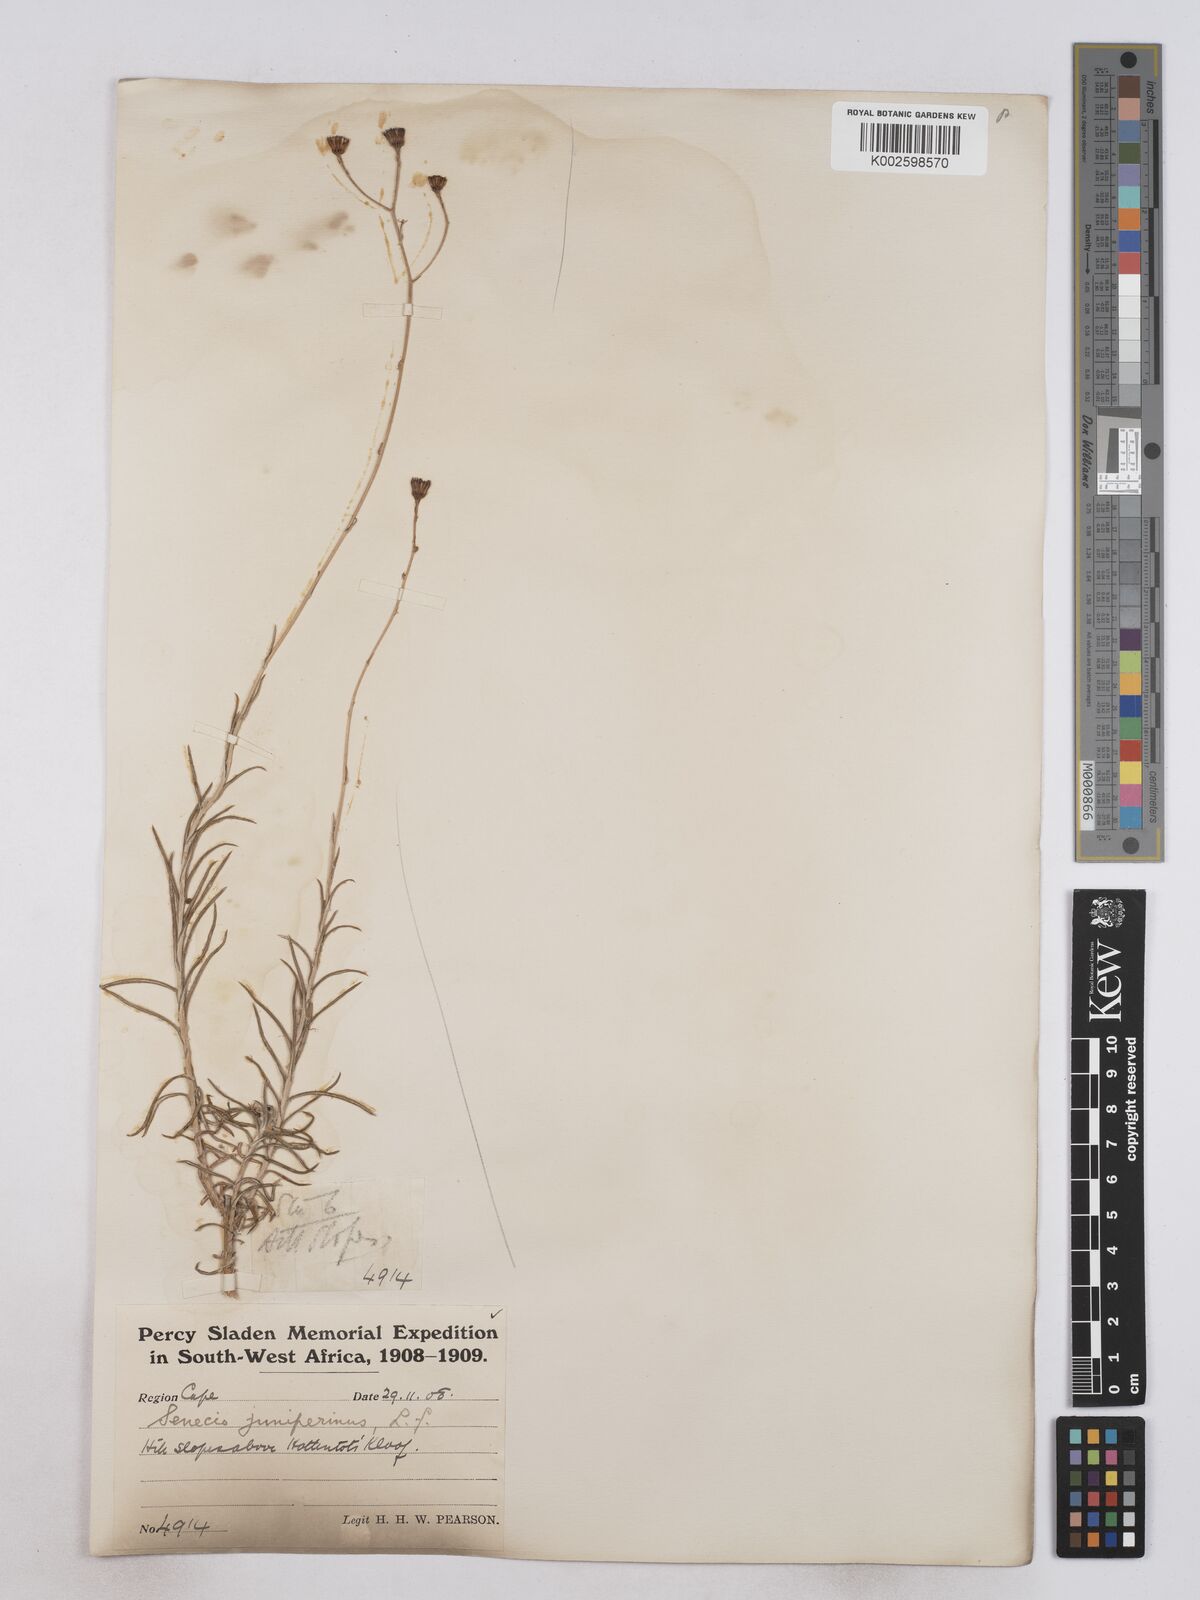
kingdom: Plantae
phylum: Tracheophyta
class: Magnoliopsida
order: Asterales
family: Asteraceae
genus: Senecio
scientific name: Senecio juniperinus
